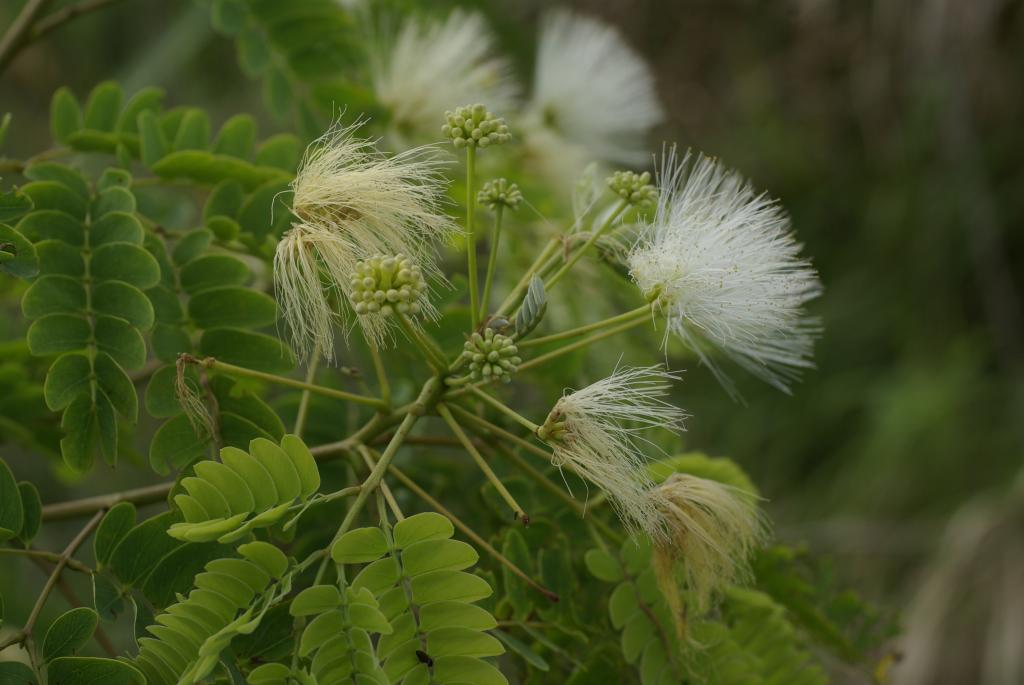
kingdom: Plantae
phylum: Tracheophyta
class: Magnoliopsida
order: Fabales
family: Fabaceae
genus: Albizia
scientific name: Albizia kalkora
